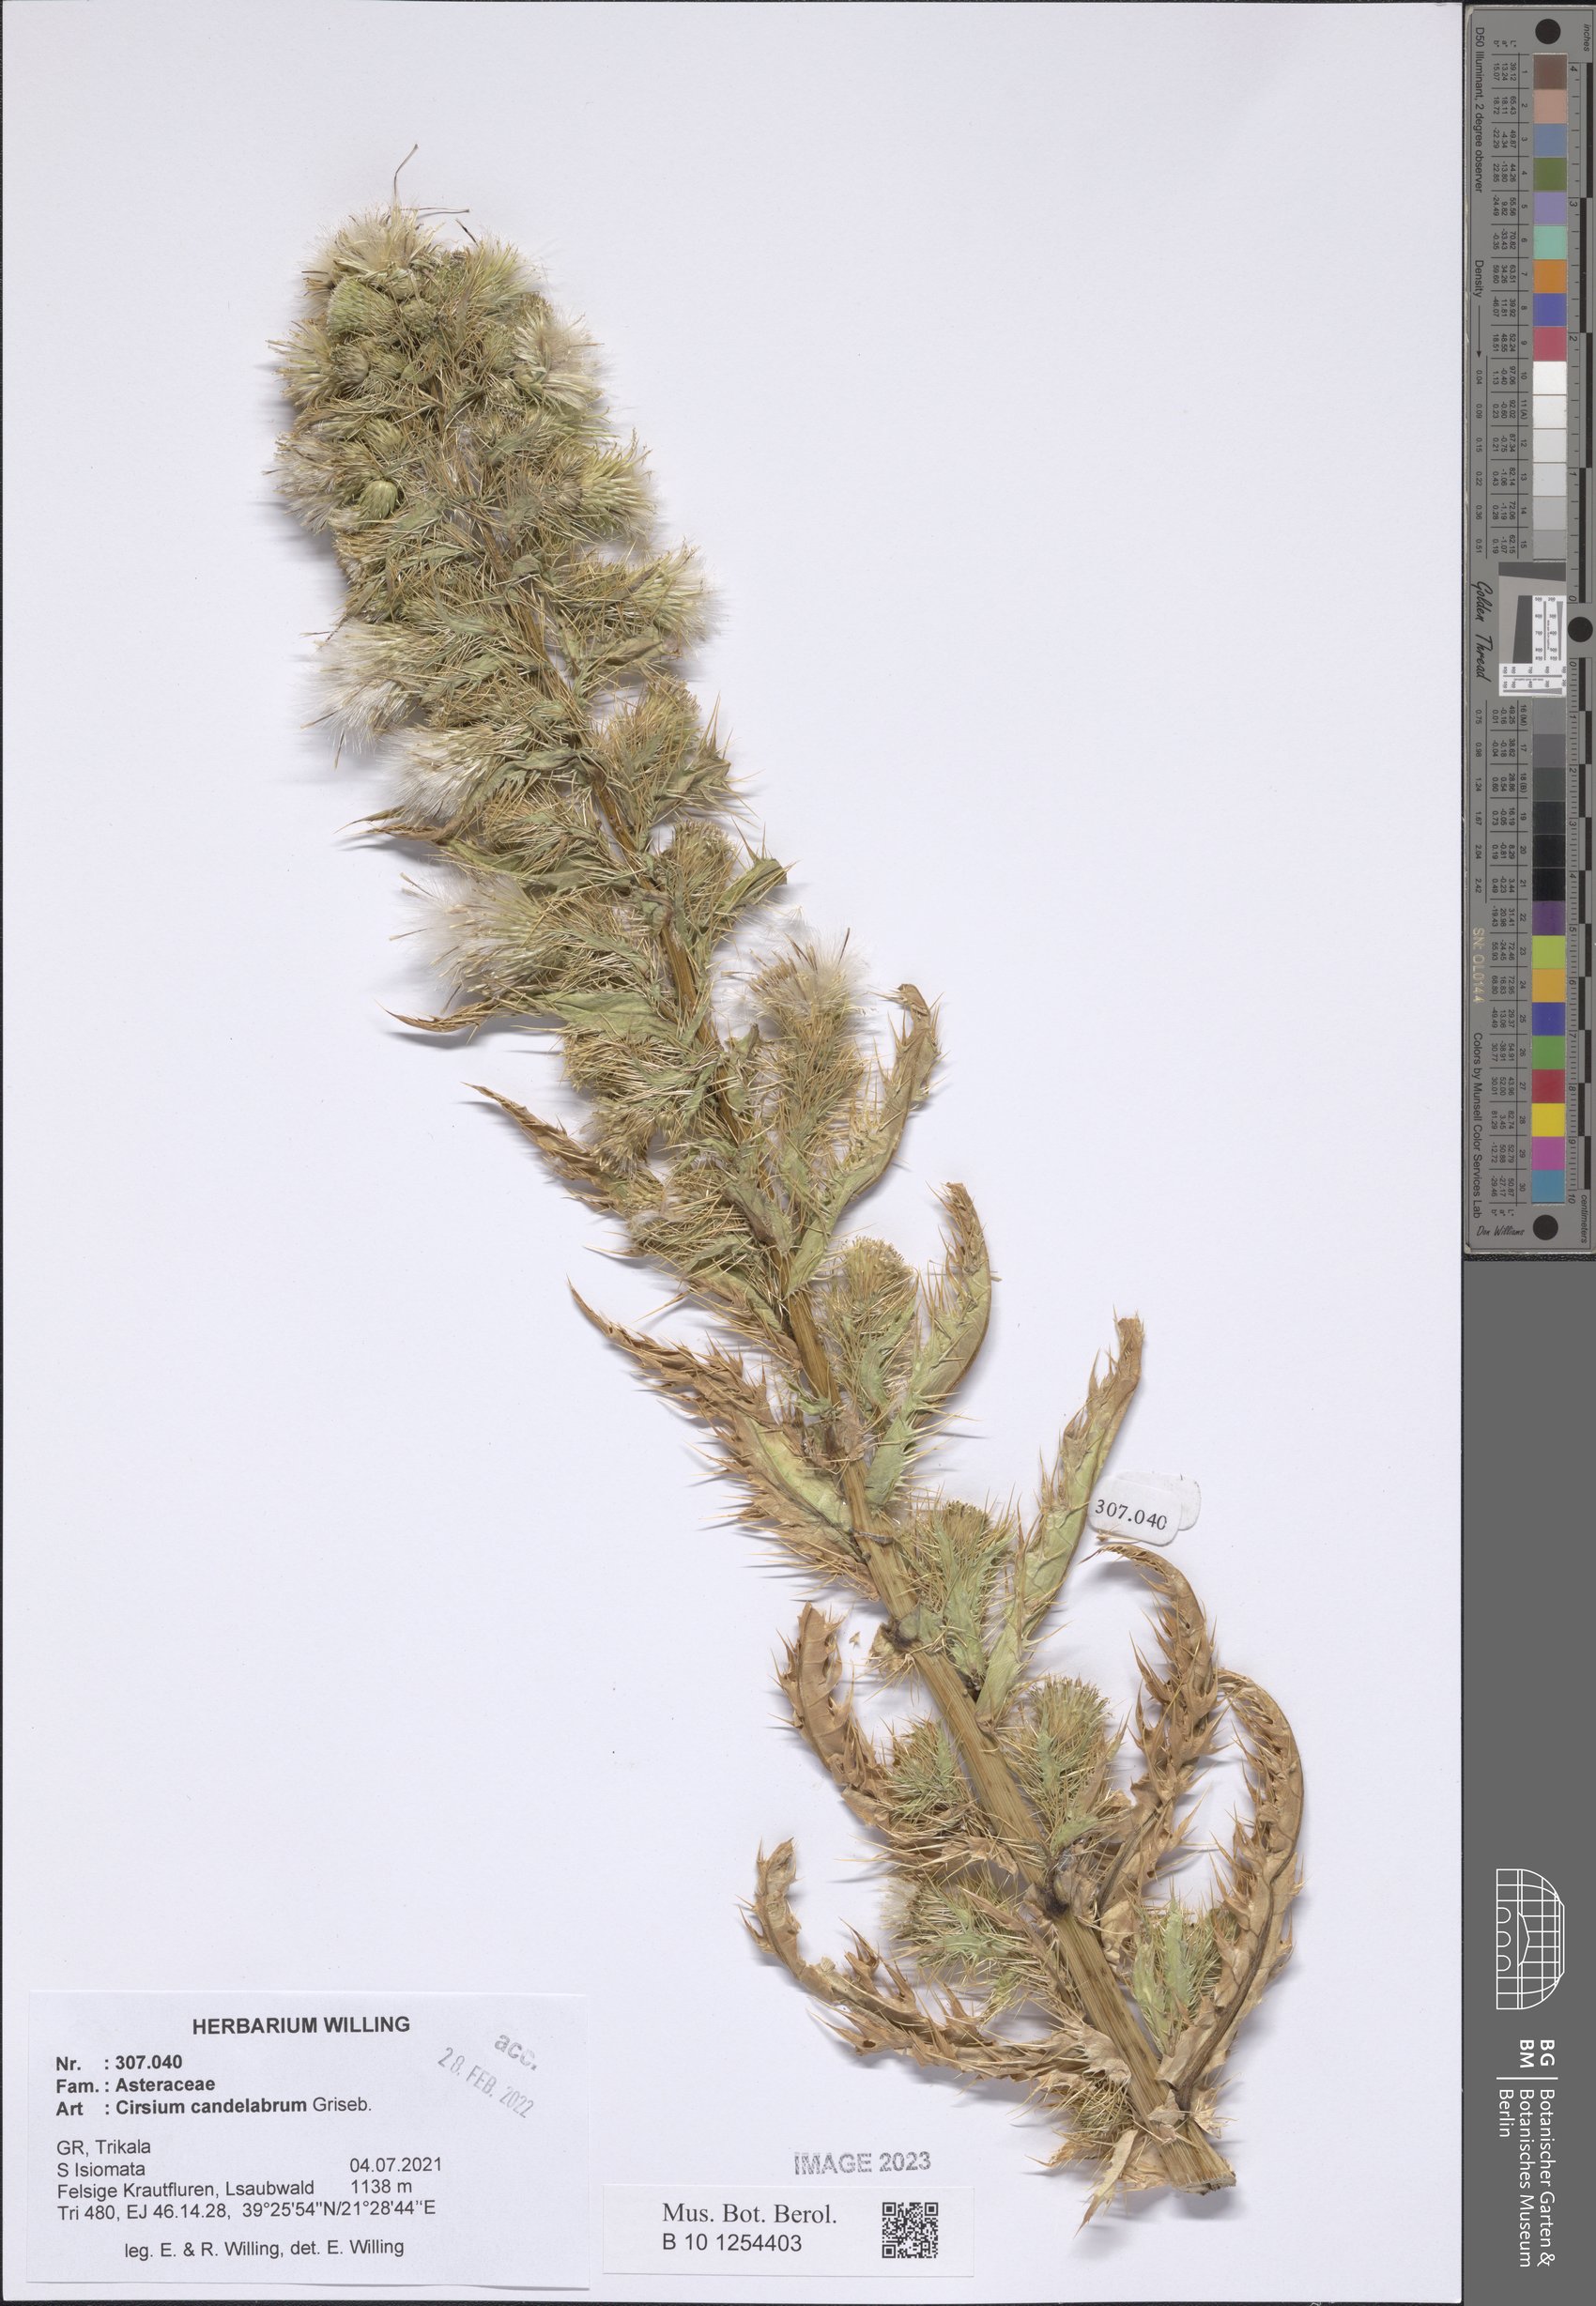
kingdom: Plantae
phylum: Tracheophyta
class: Magnoliopsida
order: Asterales
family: Asteraceae
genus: Cirsium
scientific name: Cirsium candelabrum
